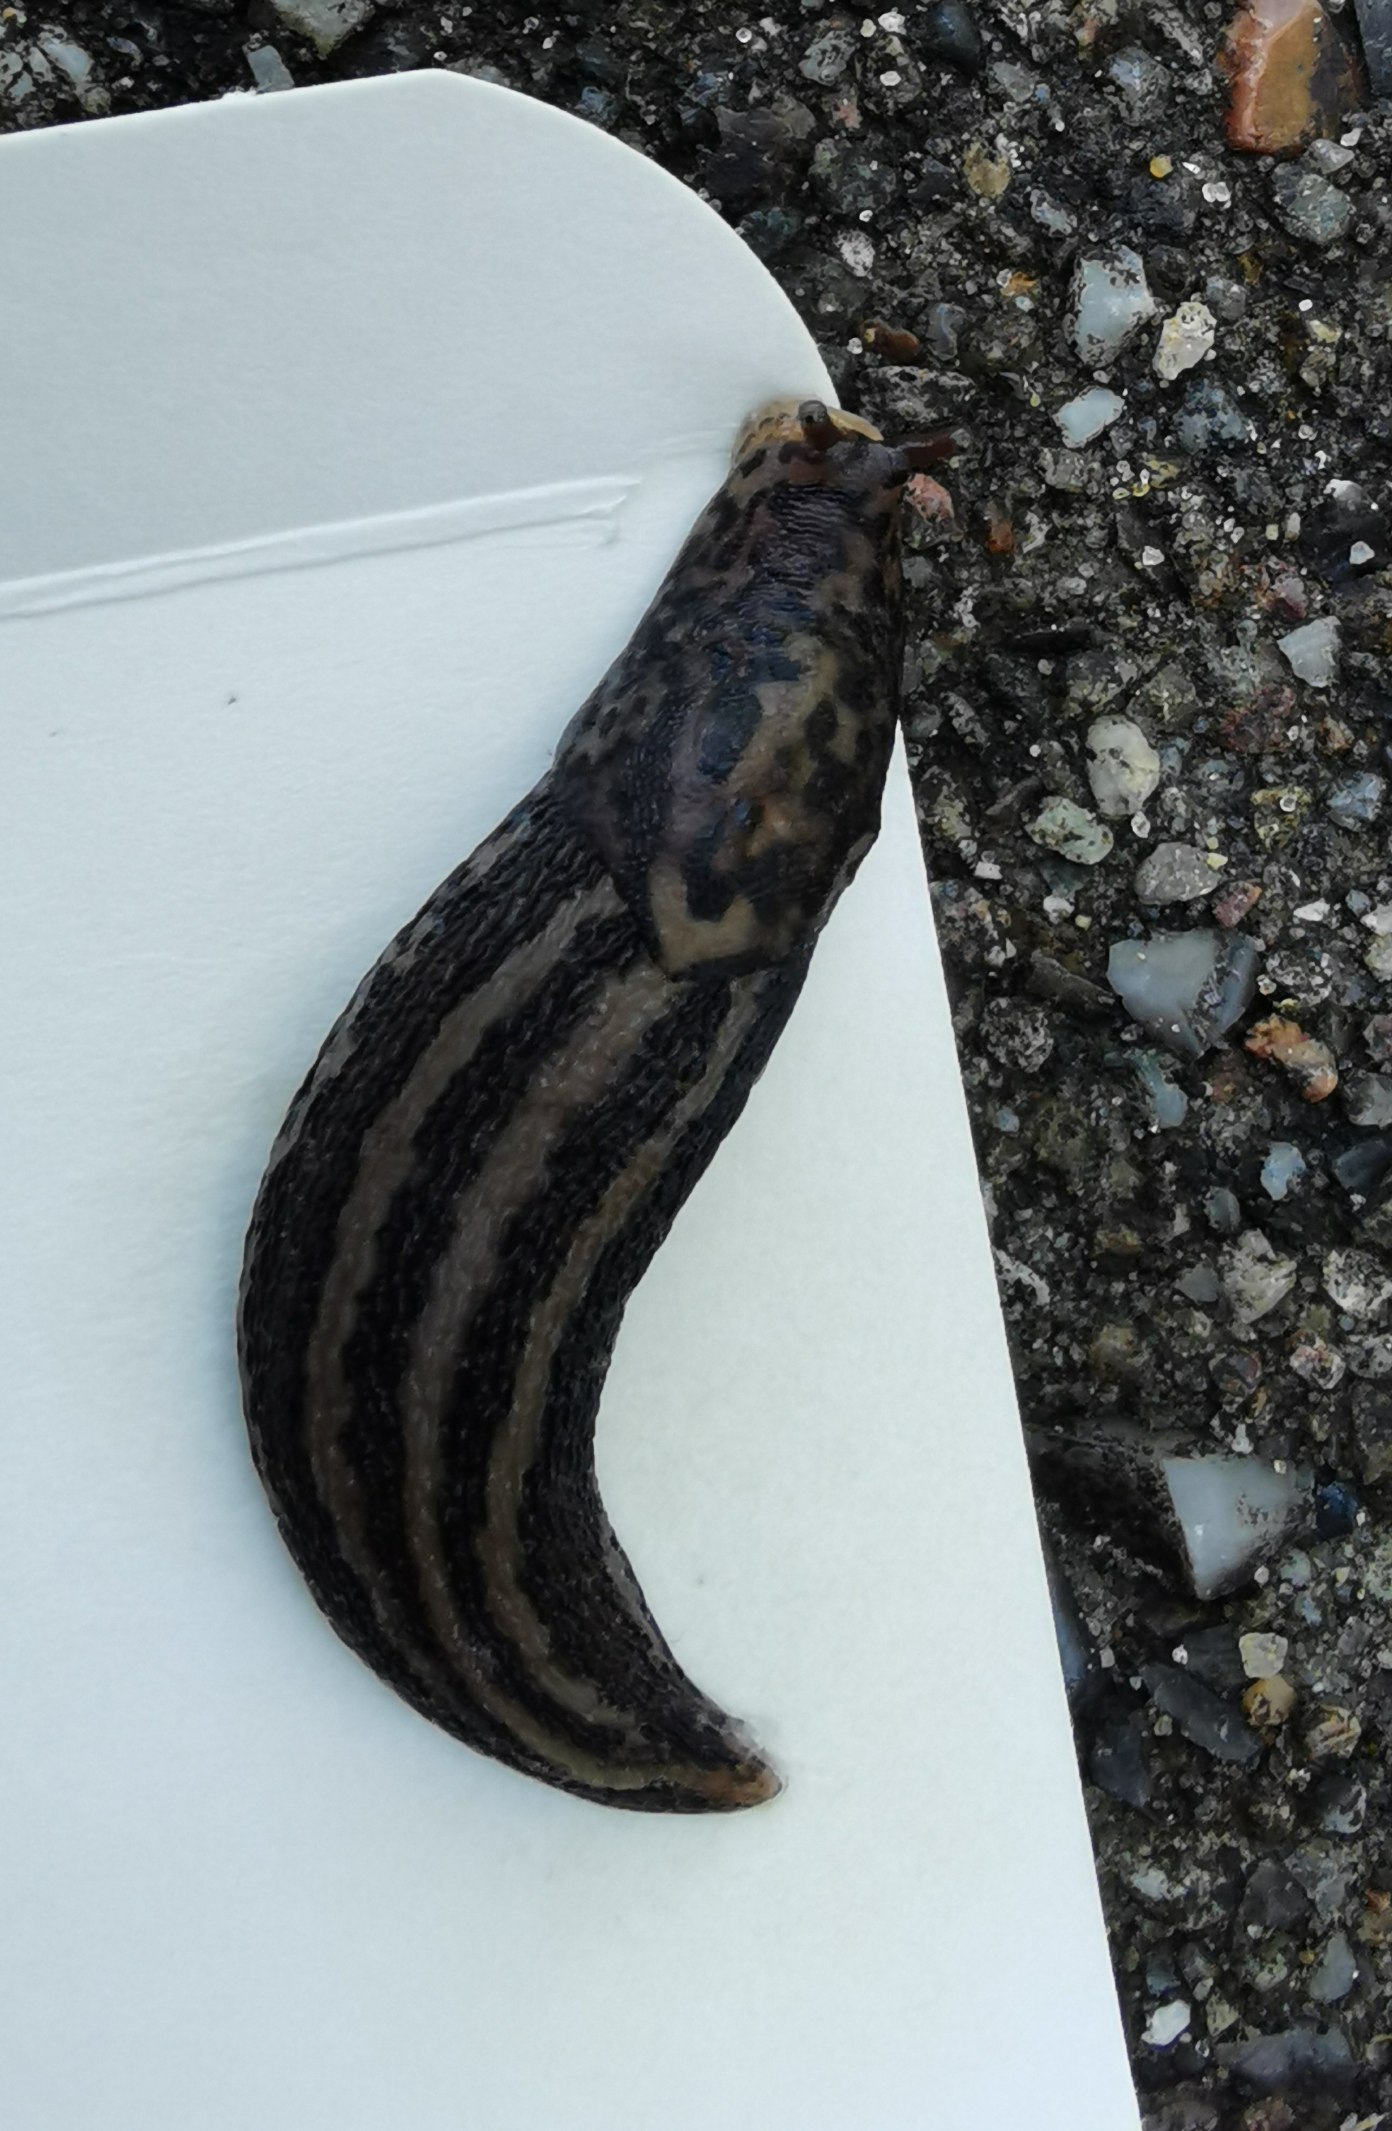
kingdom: Animalia
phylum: Mollusca
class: Gastropoda
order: Stylommatophora
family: Limacidae
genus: Limax
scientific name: Limax maximus
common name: Pantersnegl
